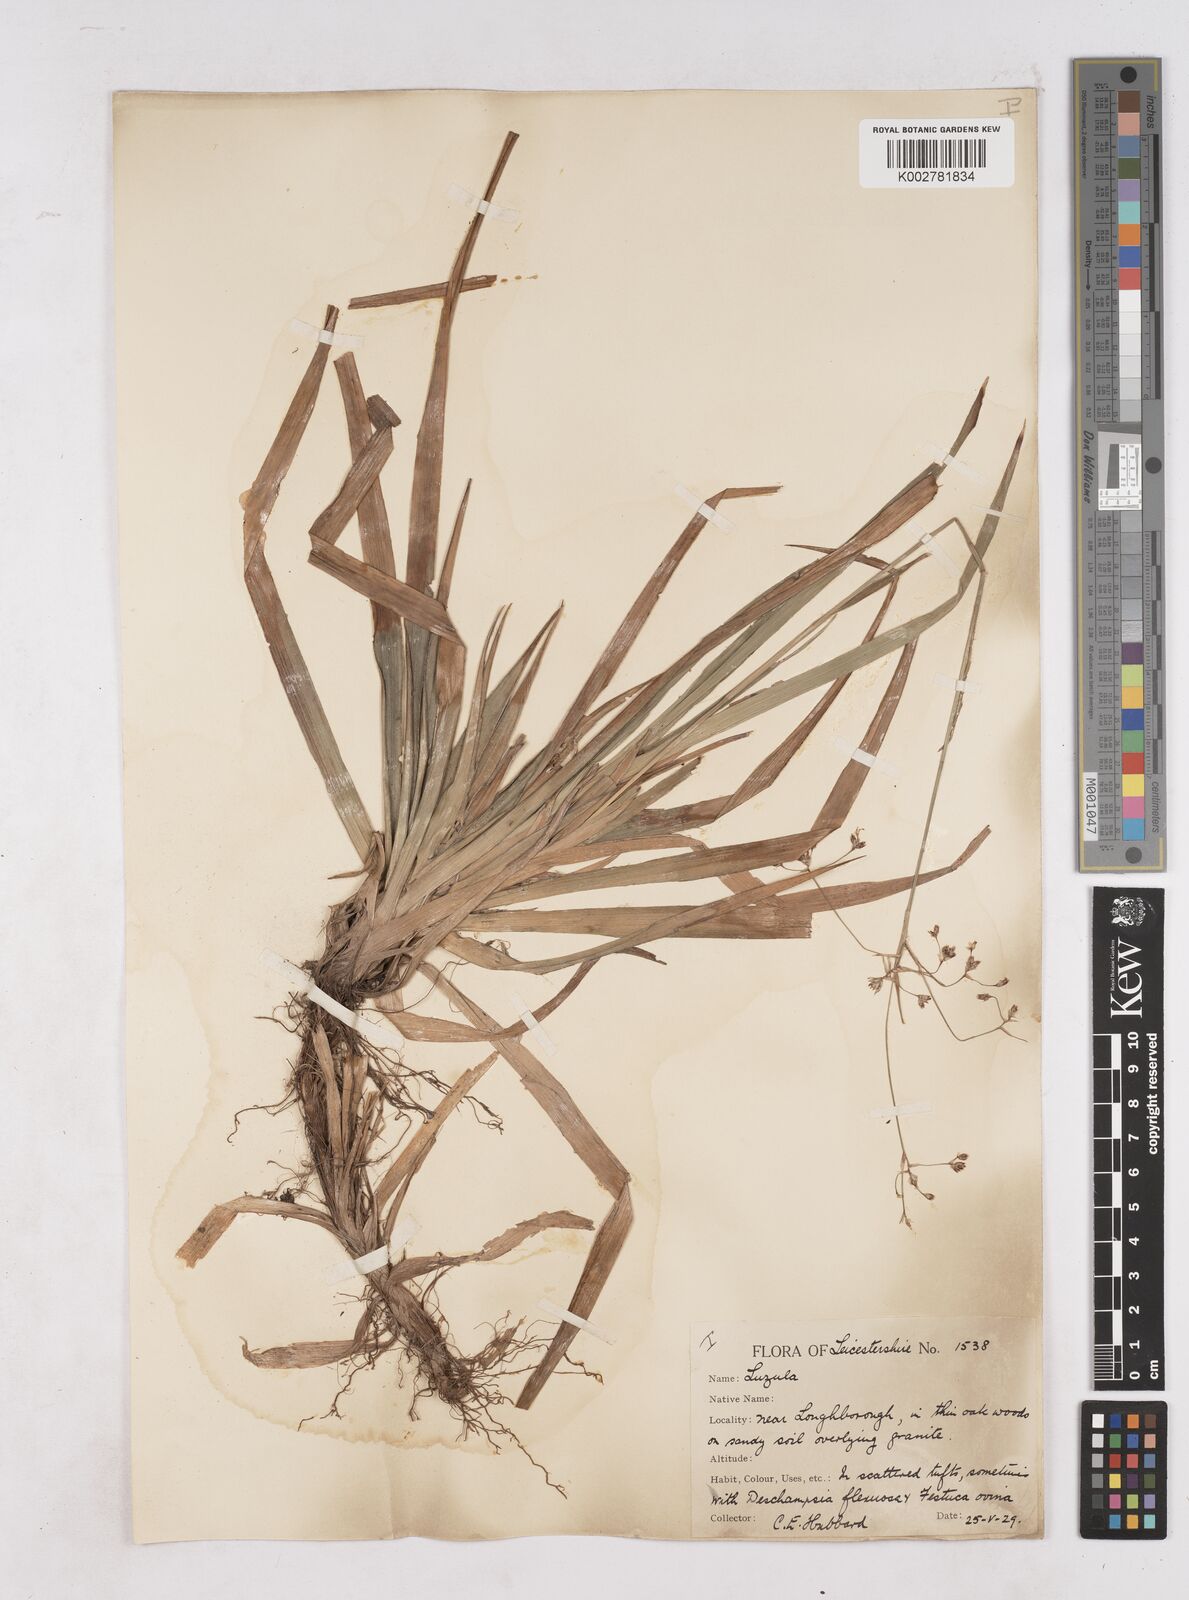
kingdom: Plantae
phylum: Tracheophyta
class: Liliopsida
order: Poales
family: Juncaceae
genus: Luzula
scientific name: Luzula sylvatica
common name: Great wood-rush
